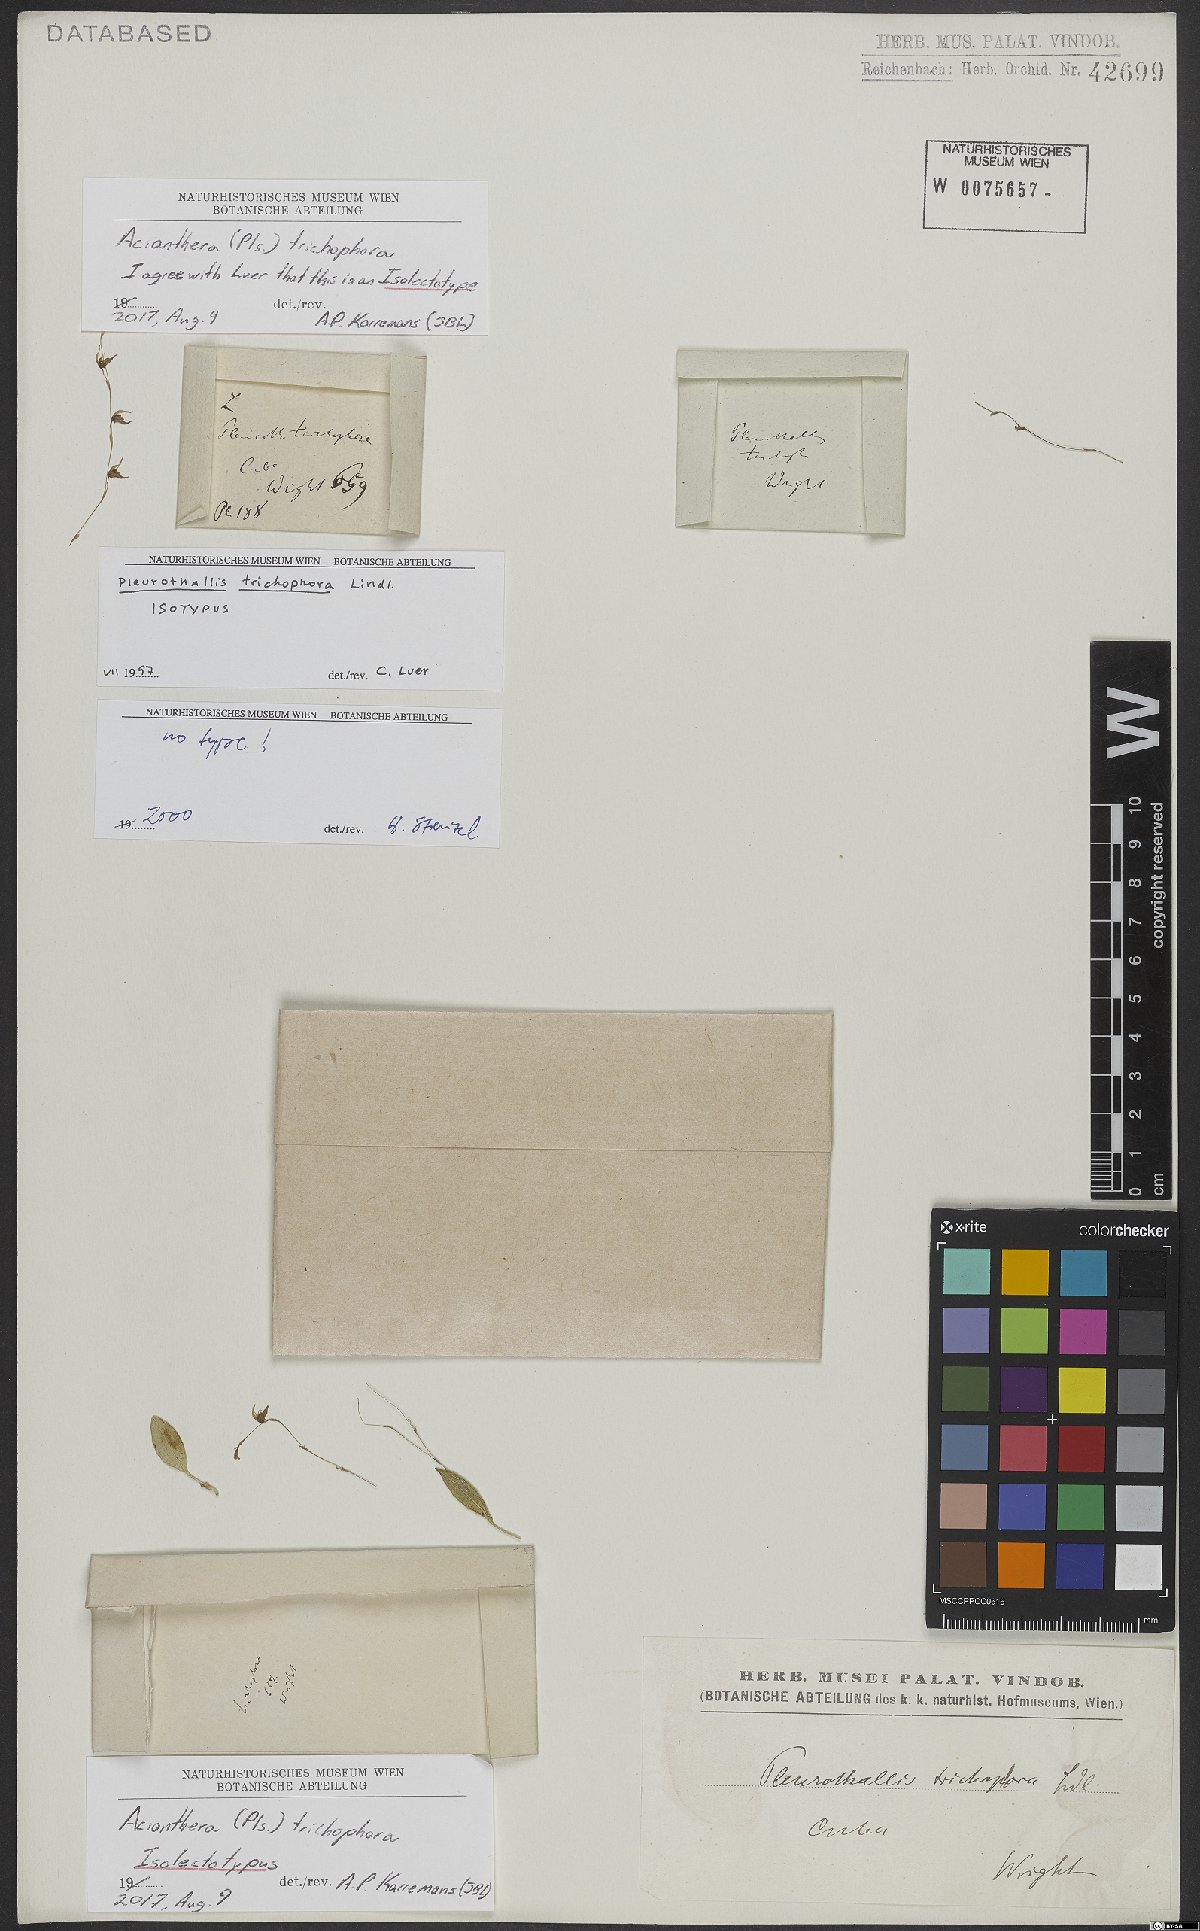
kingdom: Plantae
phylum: Tracheophyta
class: Liliopsida
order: Asparagales
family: Orchidaceae
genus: Acianthera
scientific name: Acianthera trichophora
